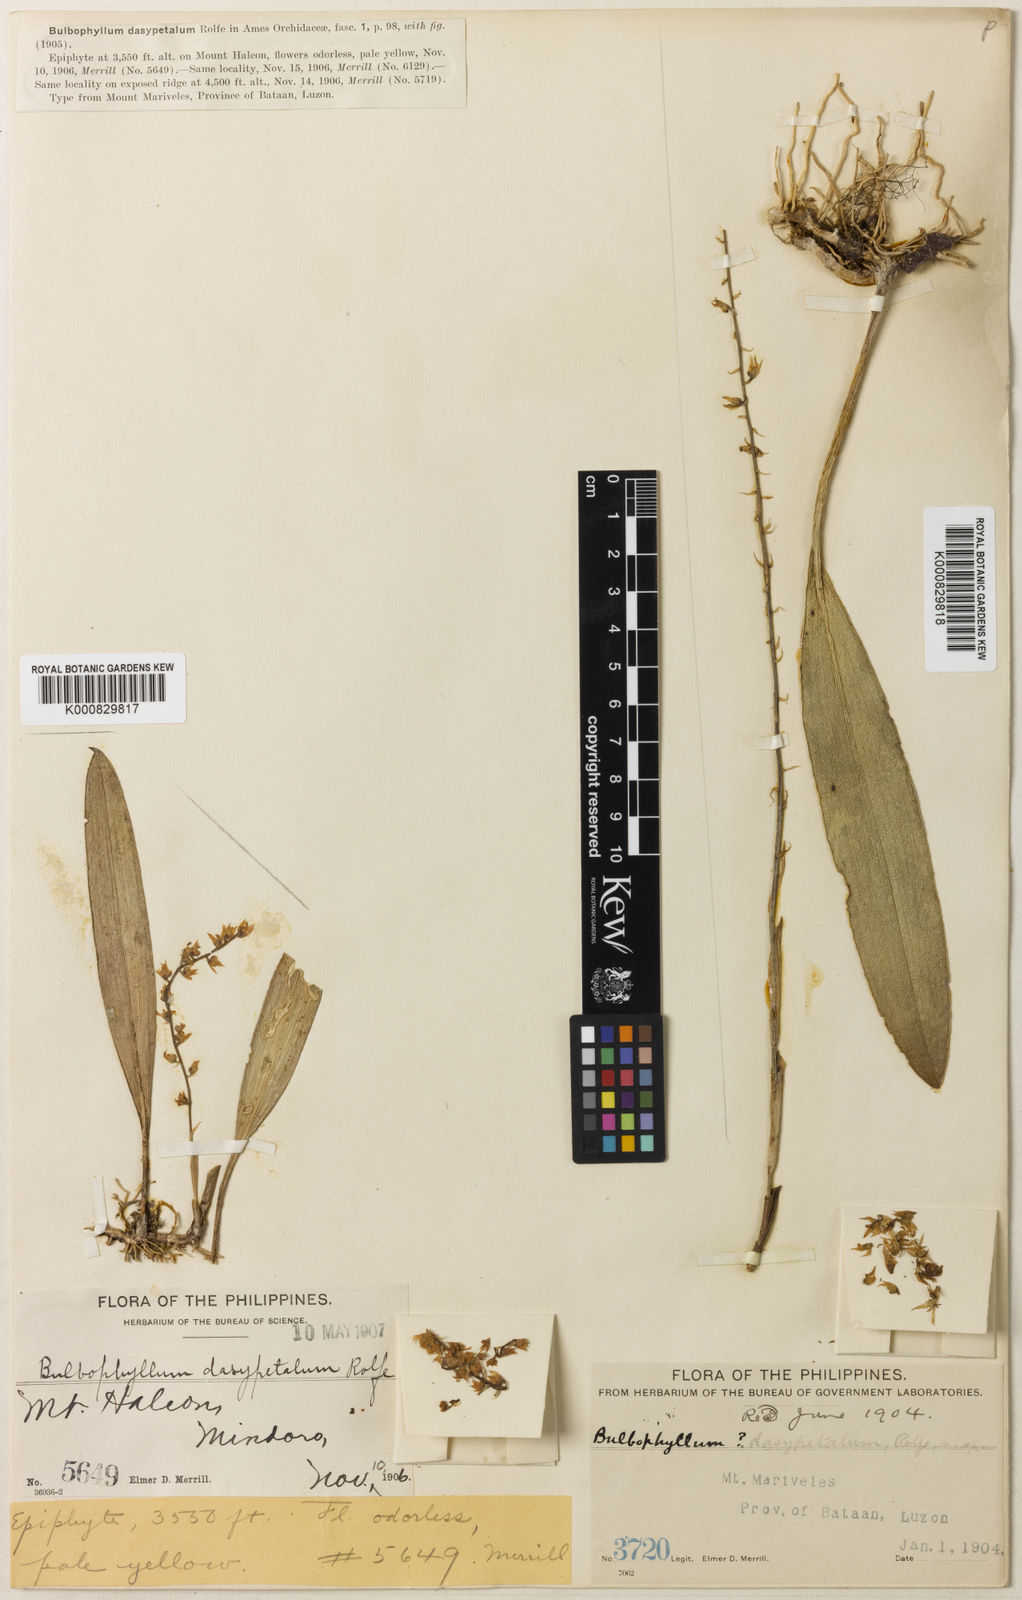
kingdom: Plantae
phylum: Tracheophyta
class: Liliopsida
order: Asparagales
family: Orchidaceae
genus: Bulbophyllum
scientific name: Bulbophyllum dasypetalum
